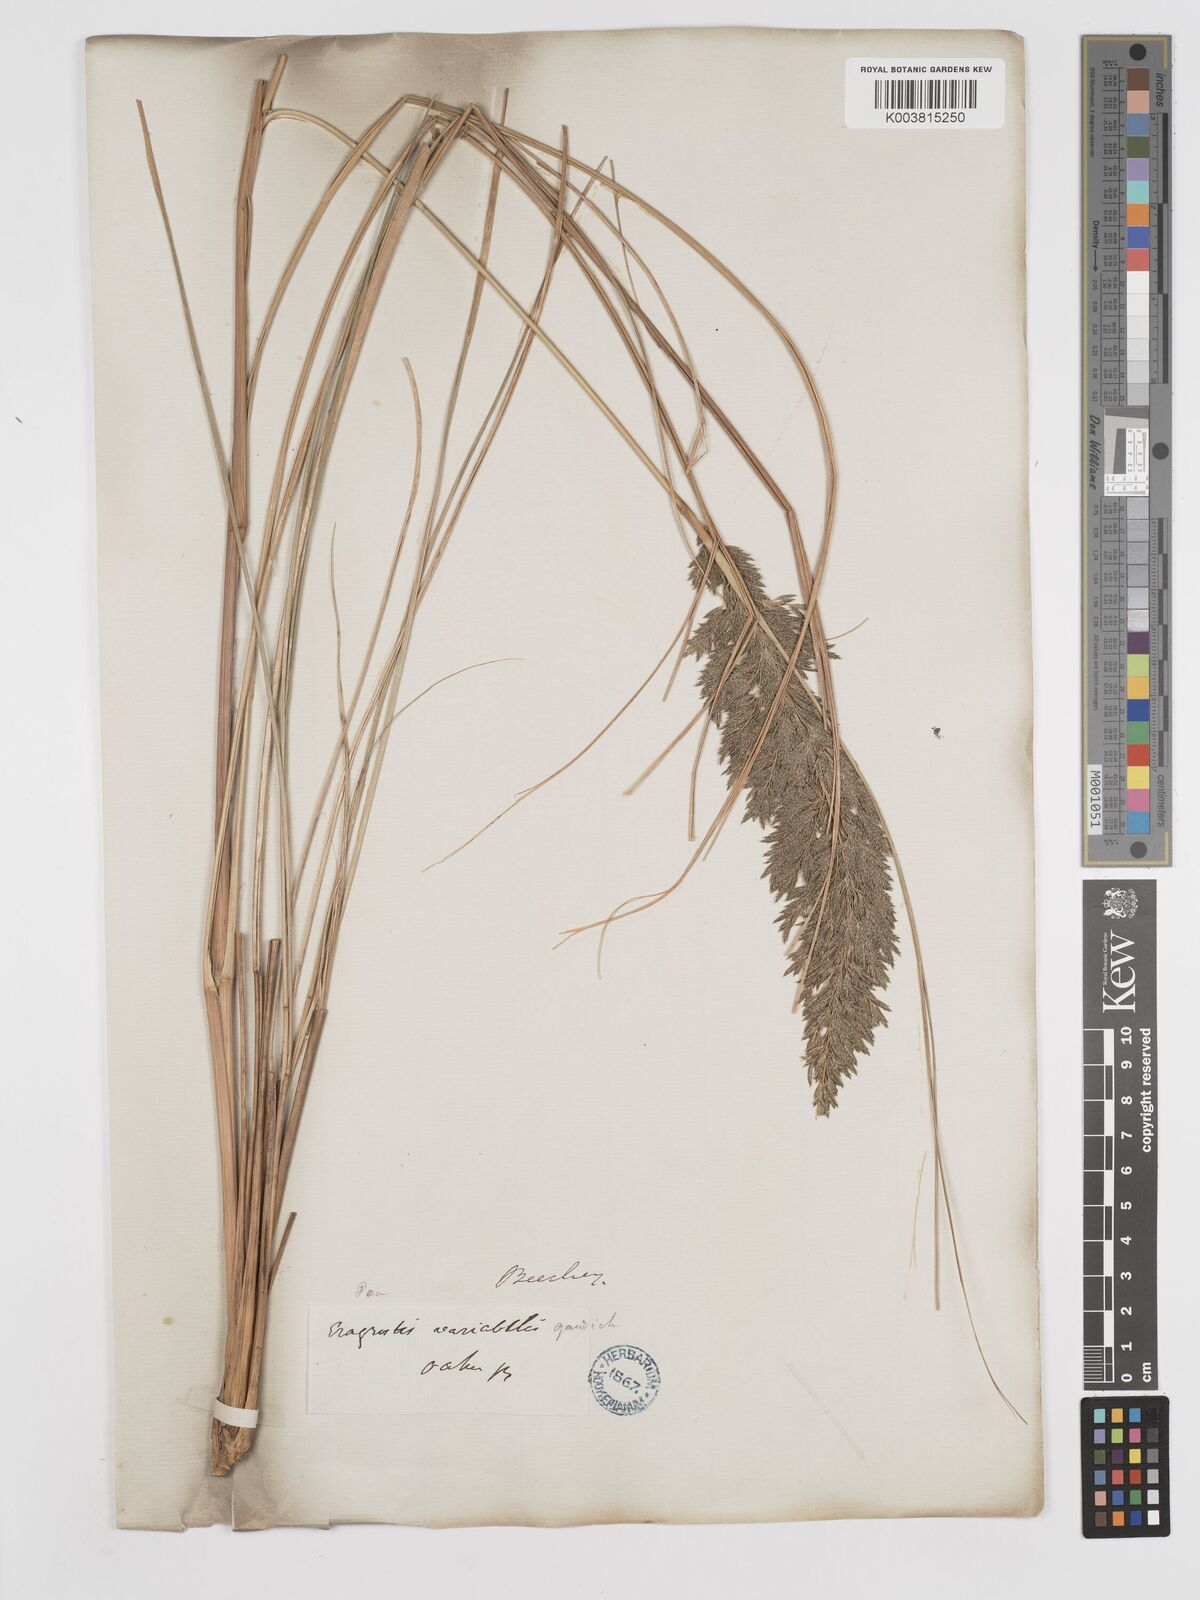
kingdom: Plantae
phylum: Tracheophyta
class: Liliopsida
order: Poales
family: Poaceae
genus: Eragrostis
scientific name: Eragrostis variabilis
